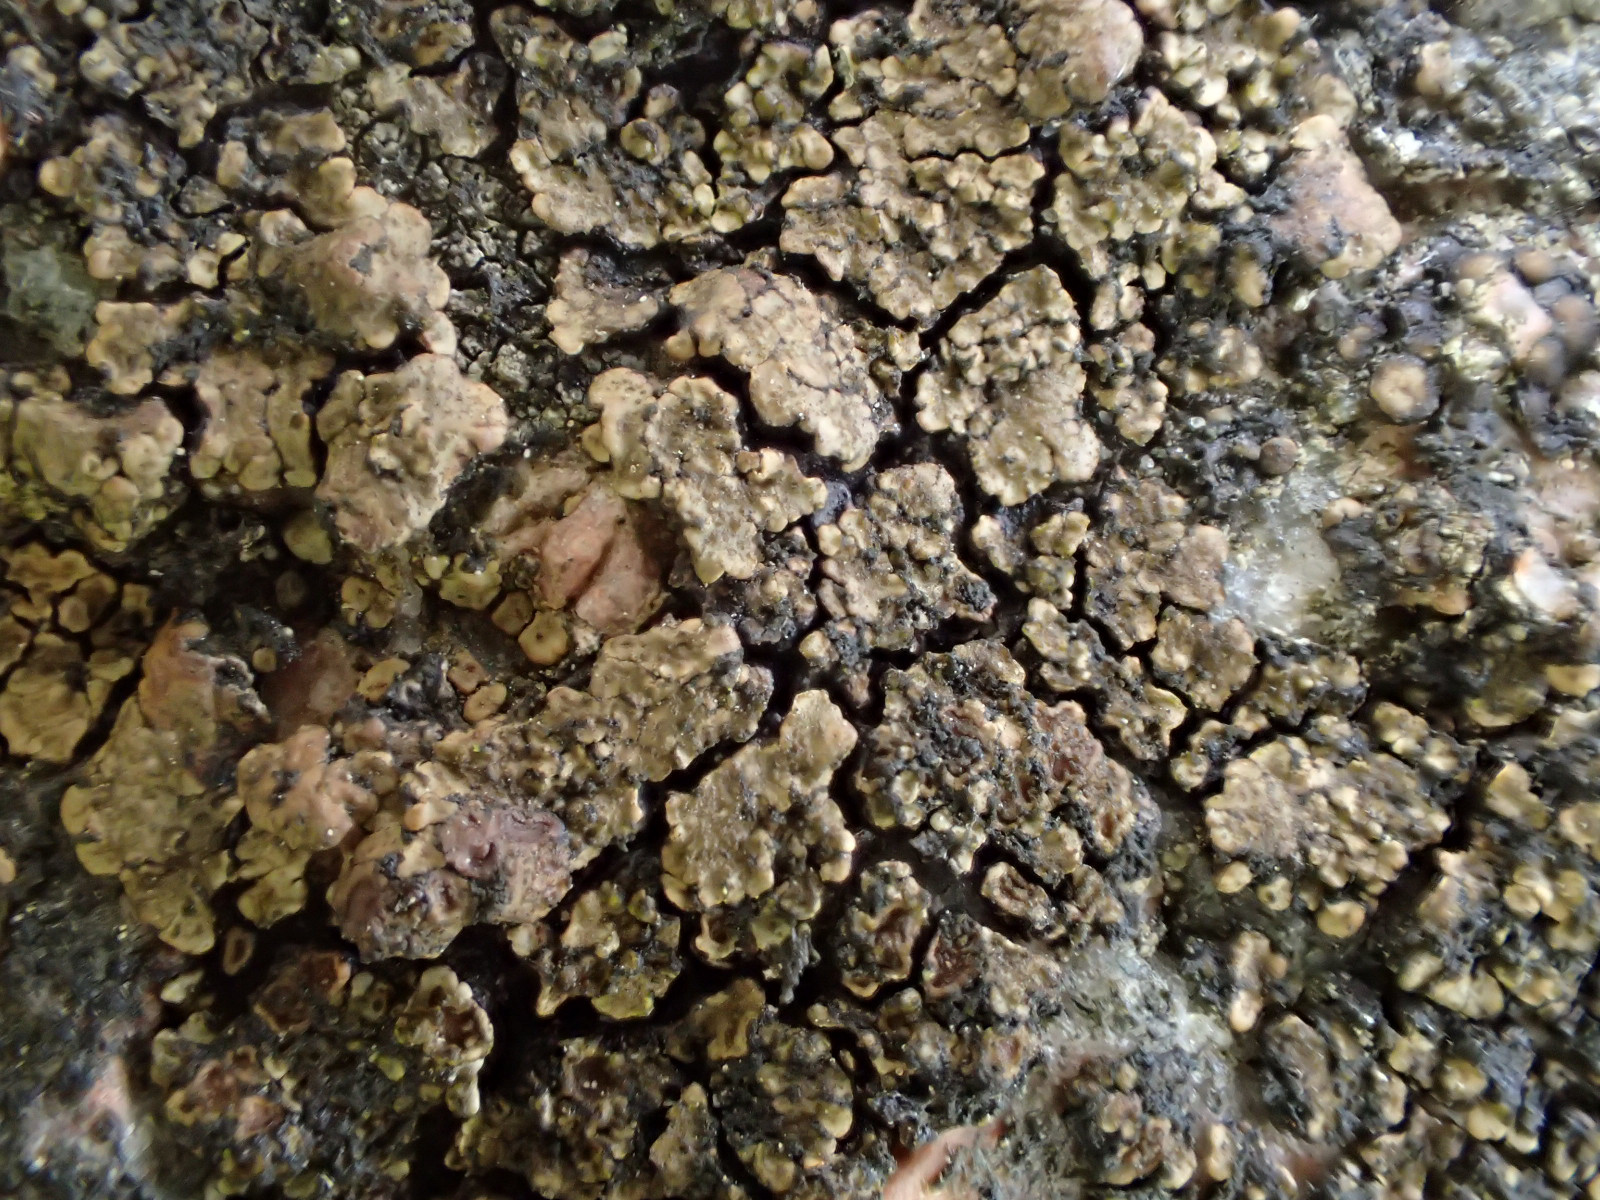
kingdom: Fungi
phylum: Ascomycota
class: Lecanoromycetes
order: Acarosporales
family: Acarosporaceae
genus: Acarospora
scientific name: Acarospora fuscata
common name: brun småsporelav
